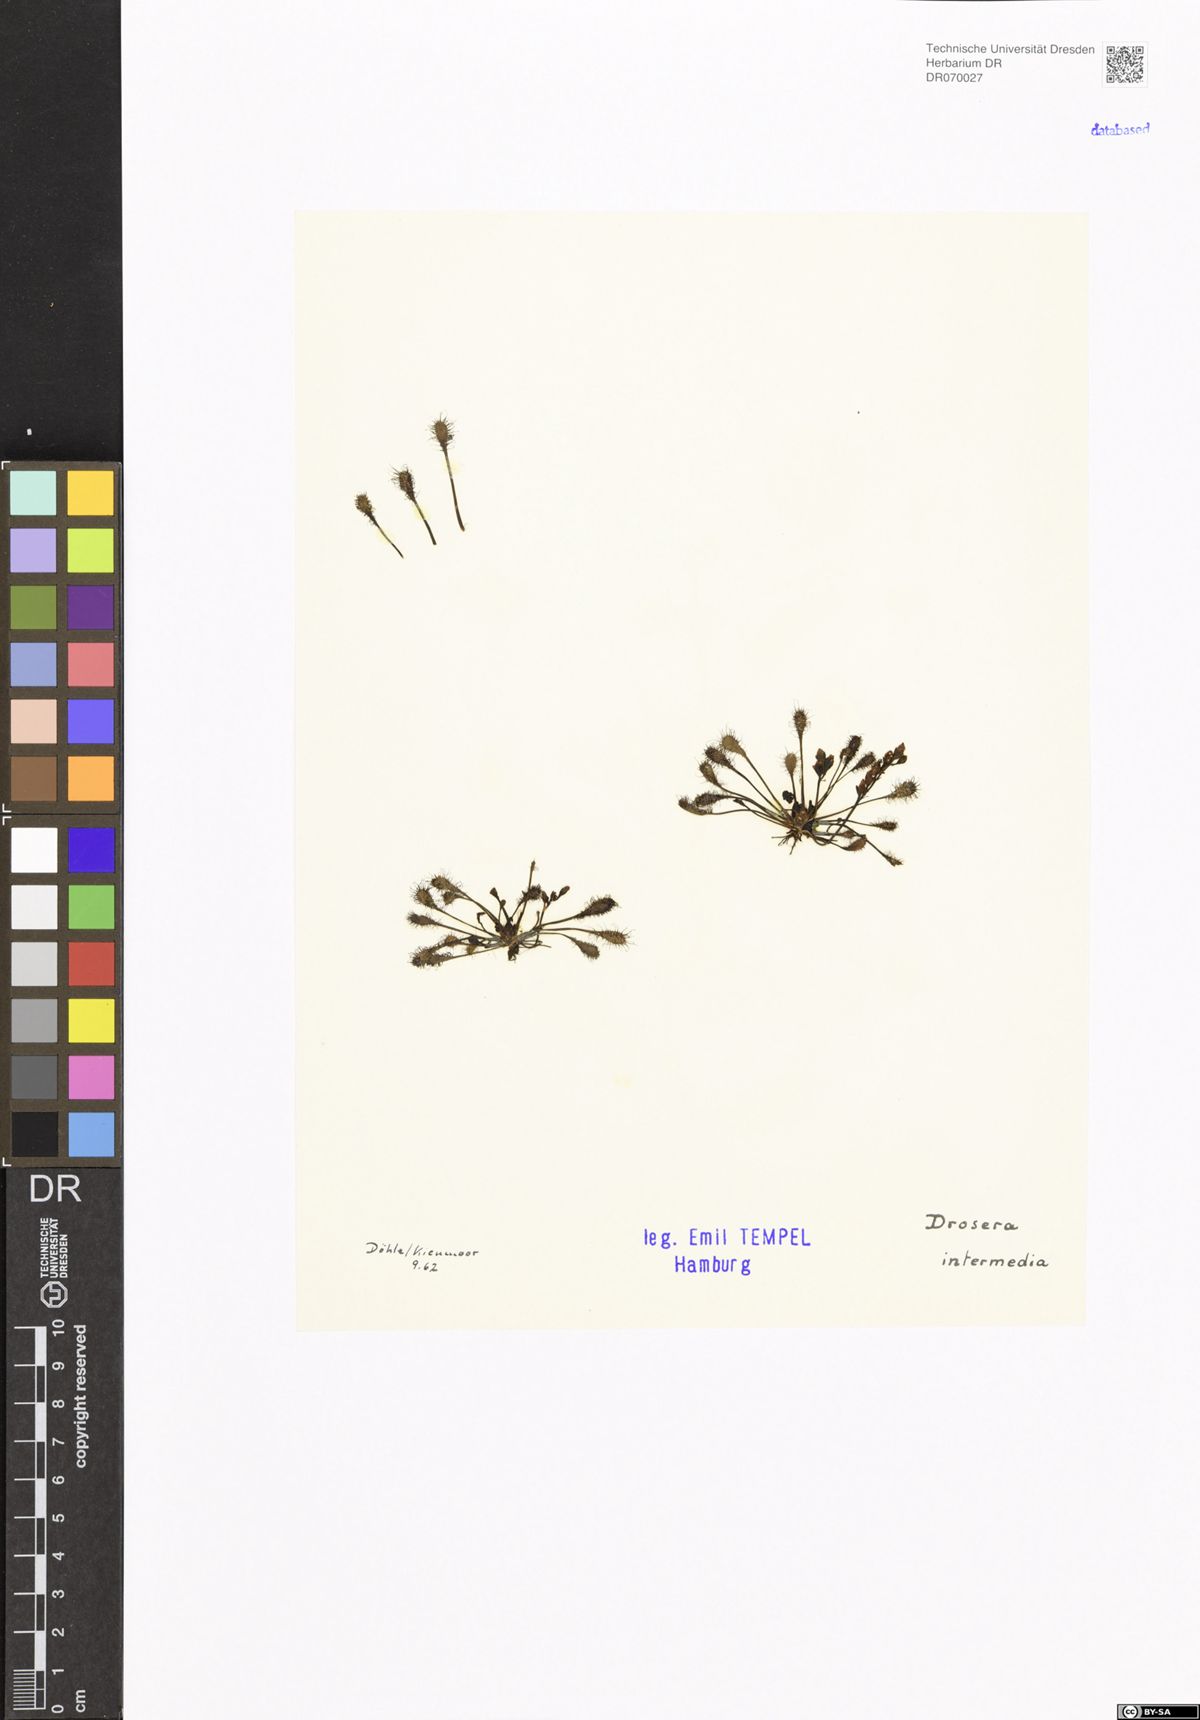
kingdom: Plantae
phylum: Tracheophyta
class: Magnoliopsida
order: Caryophyllales
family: Droseraceae
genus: Drosera
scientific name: Drosera intermedia
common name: Oblong-leaved sundew
